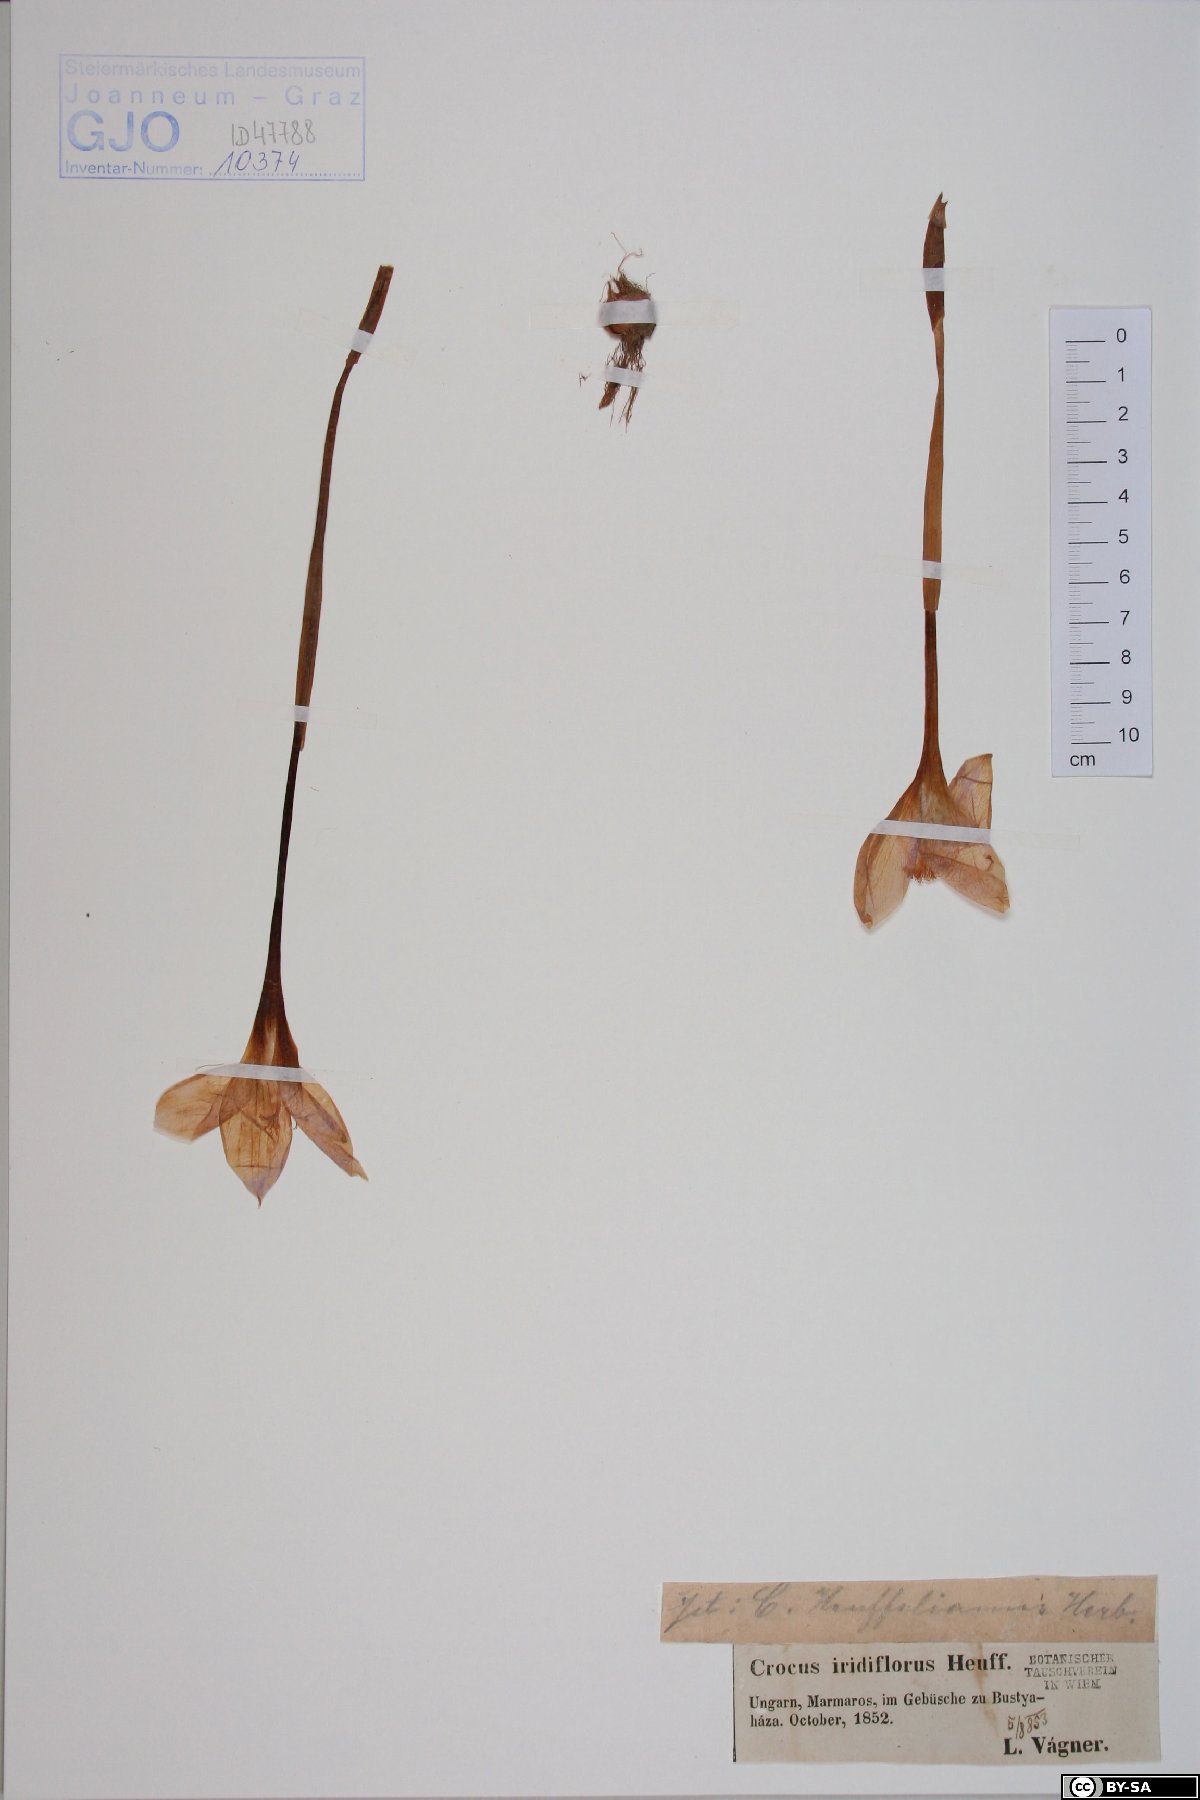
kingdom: Plantae
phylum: Tracheophyta
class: Liliopsida
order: Asparagales
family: Iridaceae
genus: Crocus
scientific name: Crocus banaticus
